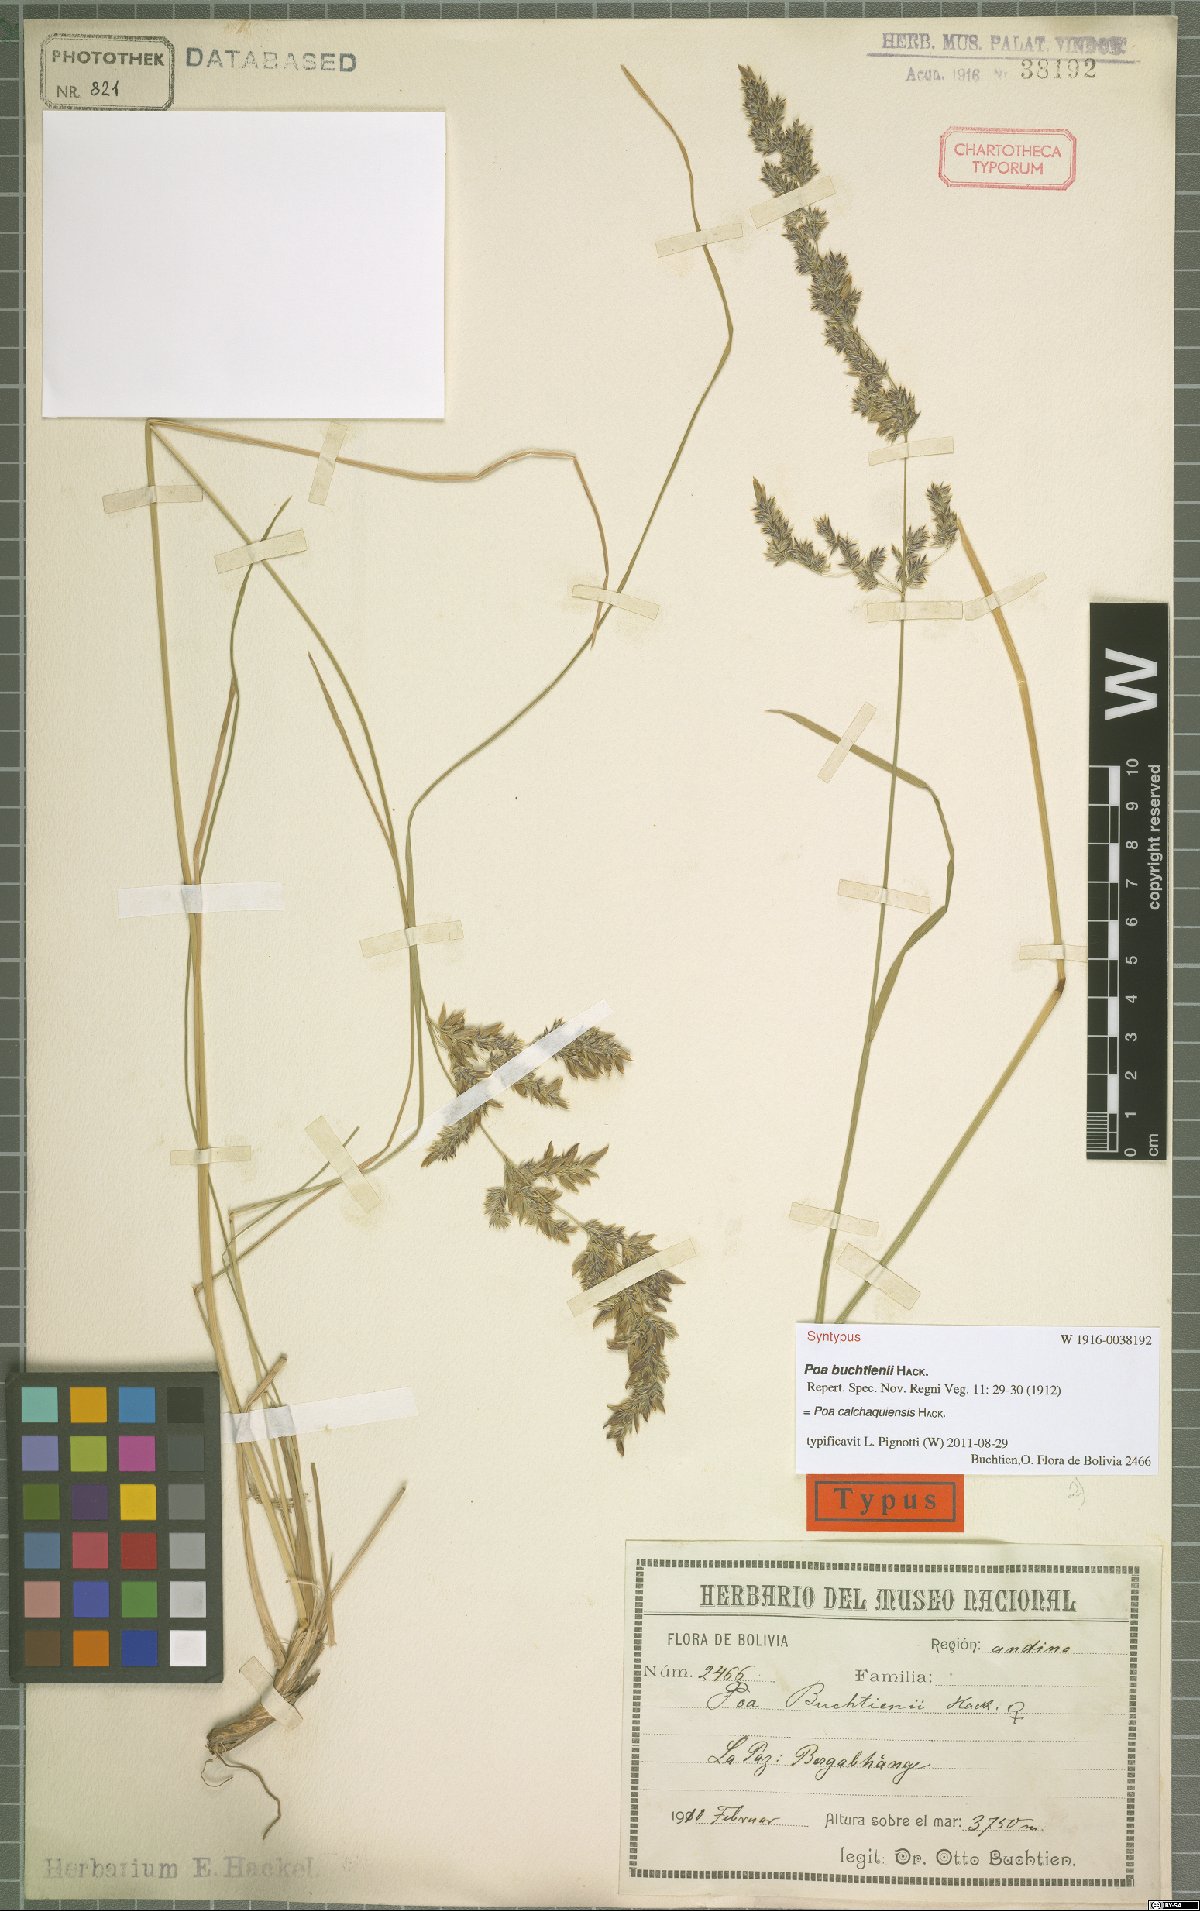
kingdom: Plantae
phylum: Tracheophyta
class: Liliopsida
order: Poales
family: Poaceae
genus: Poa
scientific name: Poa calchaquiensis
